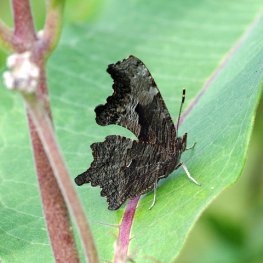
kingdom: Animalia
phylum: Arthropoda
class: Insecta
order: Lepidoptera
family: Nymphalidae
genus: Polygonia
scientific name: Polygonia progne
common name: Gray Comma
